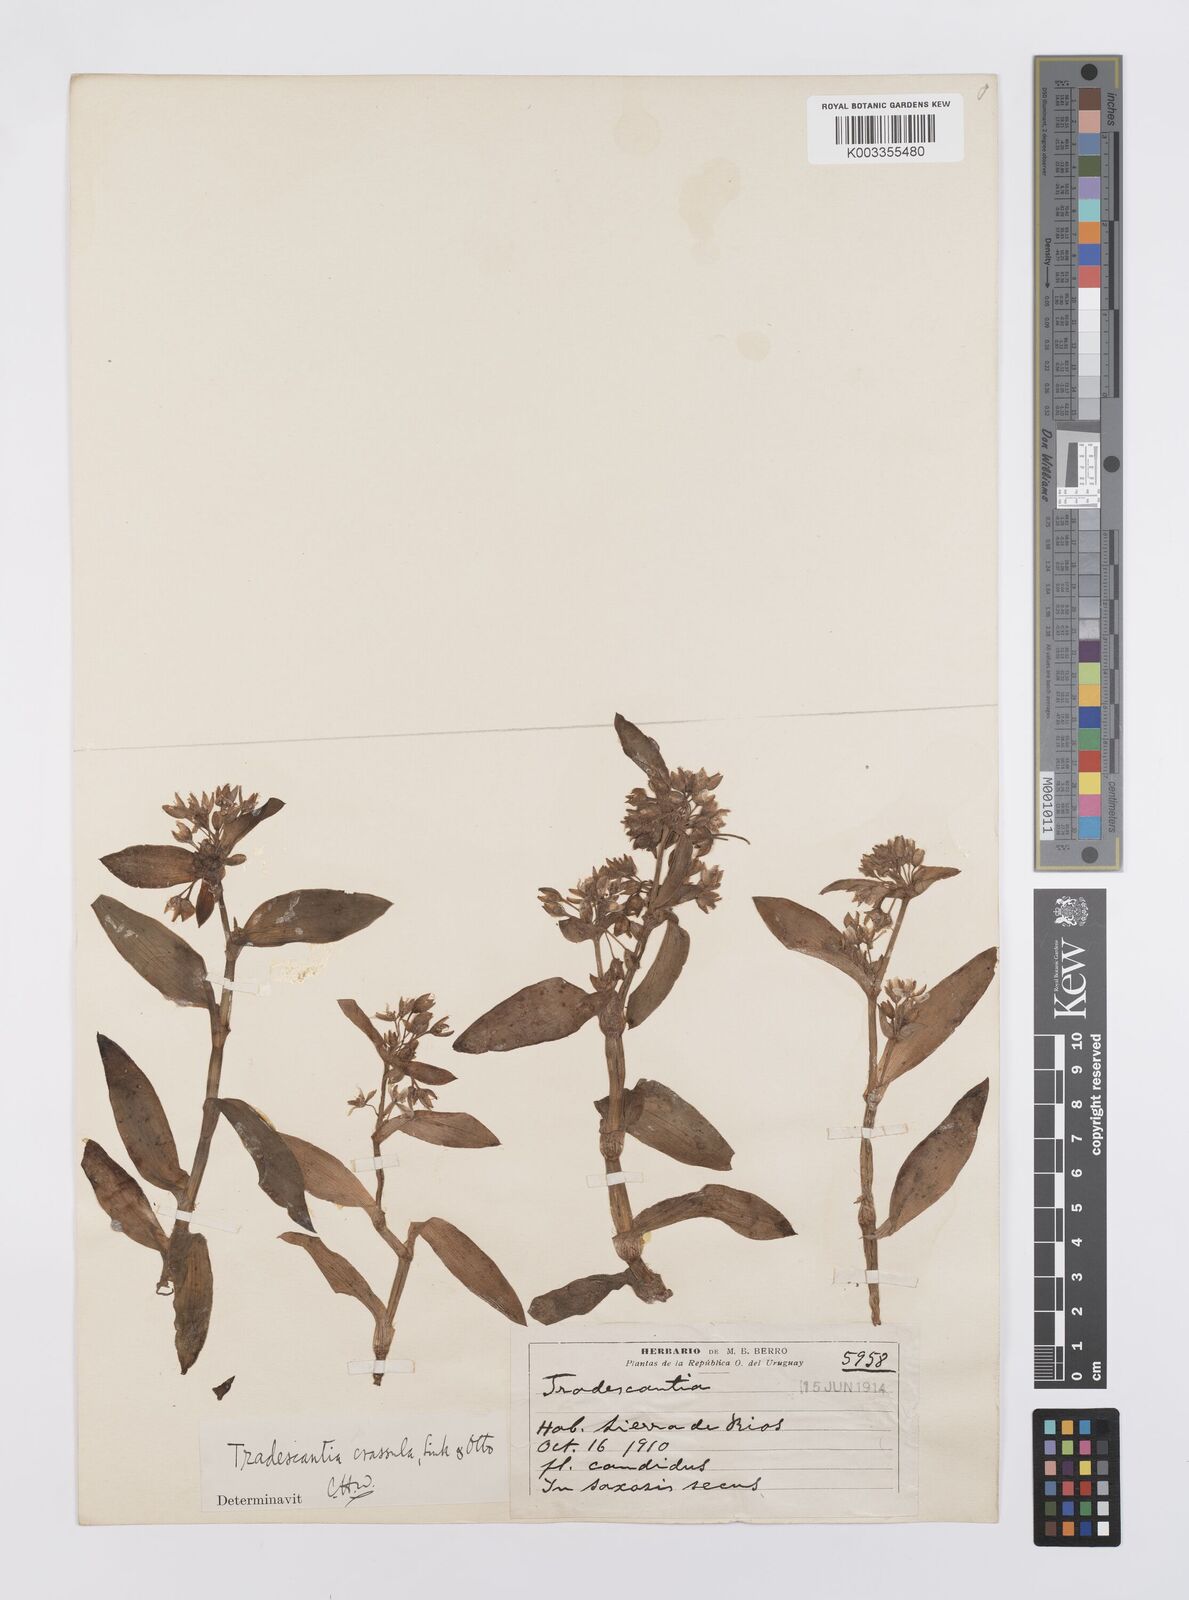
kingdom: Plantae
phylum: Tracheophyta
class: Liliopsida
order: Commelinales
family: Commelinaceae
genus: Tradescantia
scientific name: Tradescantia crassula
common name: Succulent spiderwort
